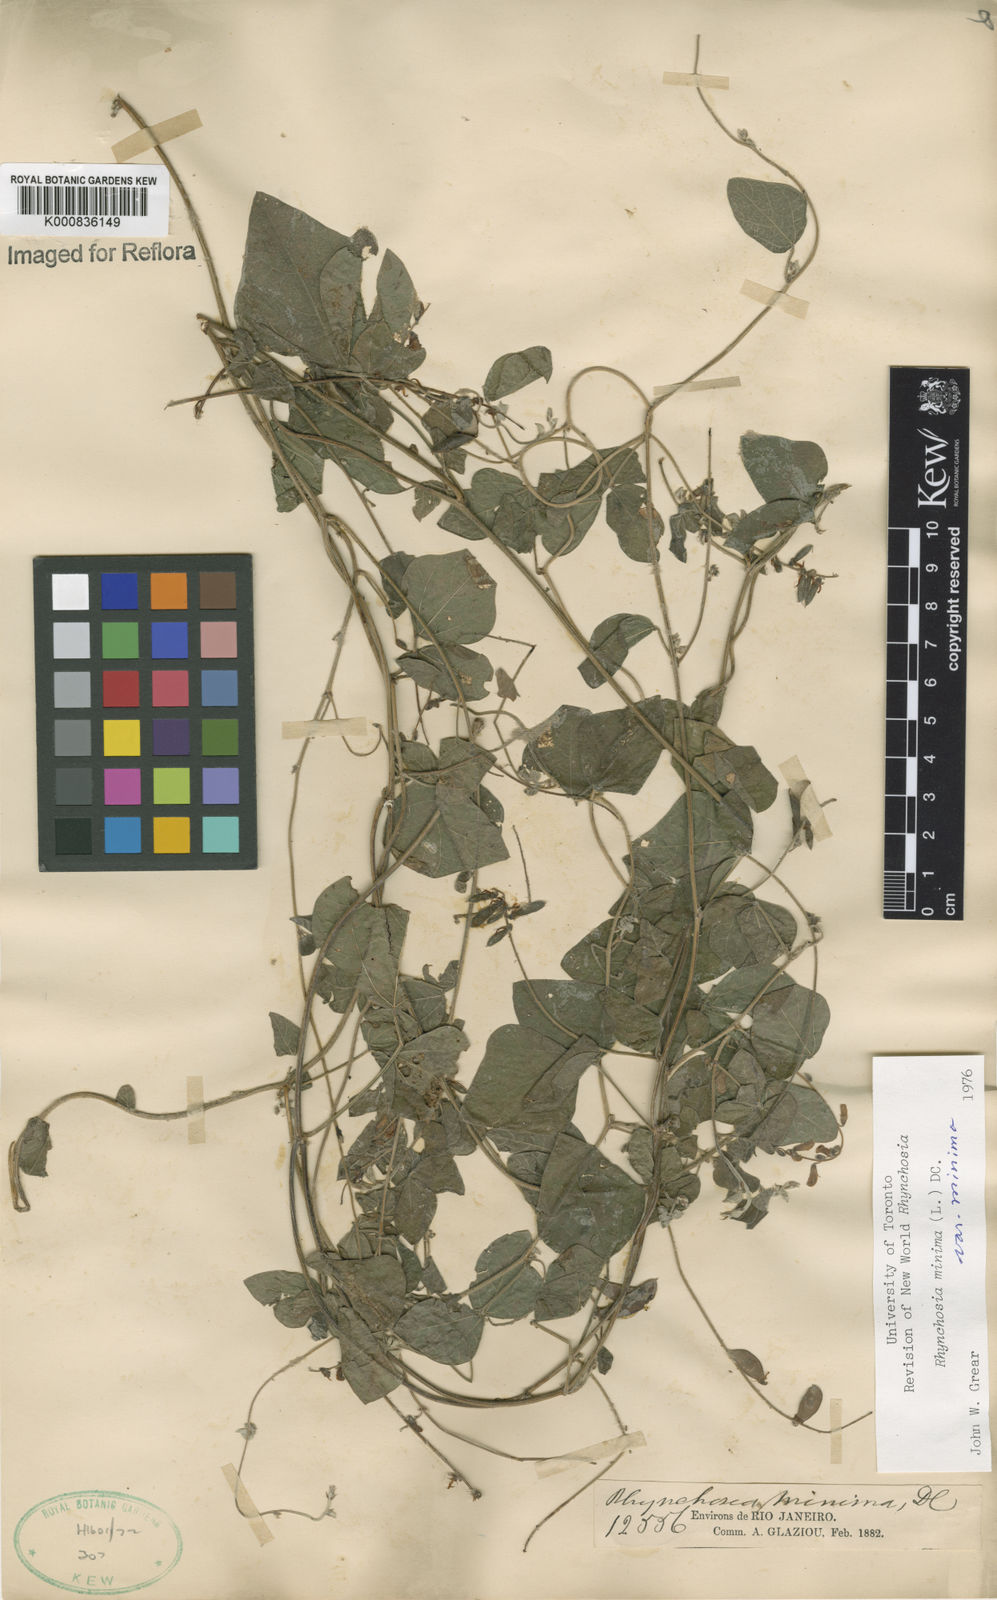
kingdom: Plantae
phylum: Tracheophyta
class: Magnoliopsida
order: Fabales
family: Fabaceae
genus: Rhynchosia
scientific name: Rhynchosia minima
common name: Least snoutbean
